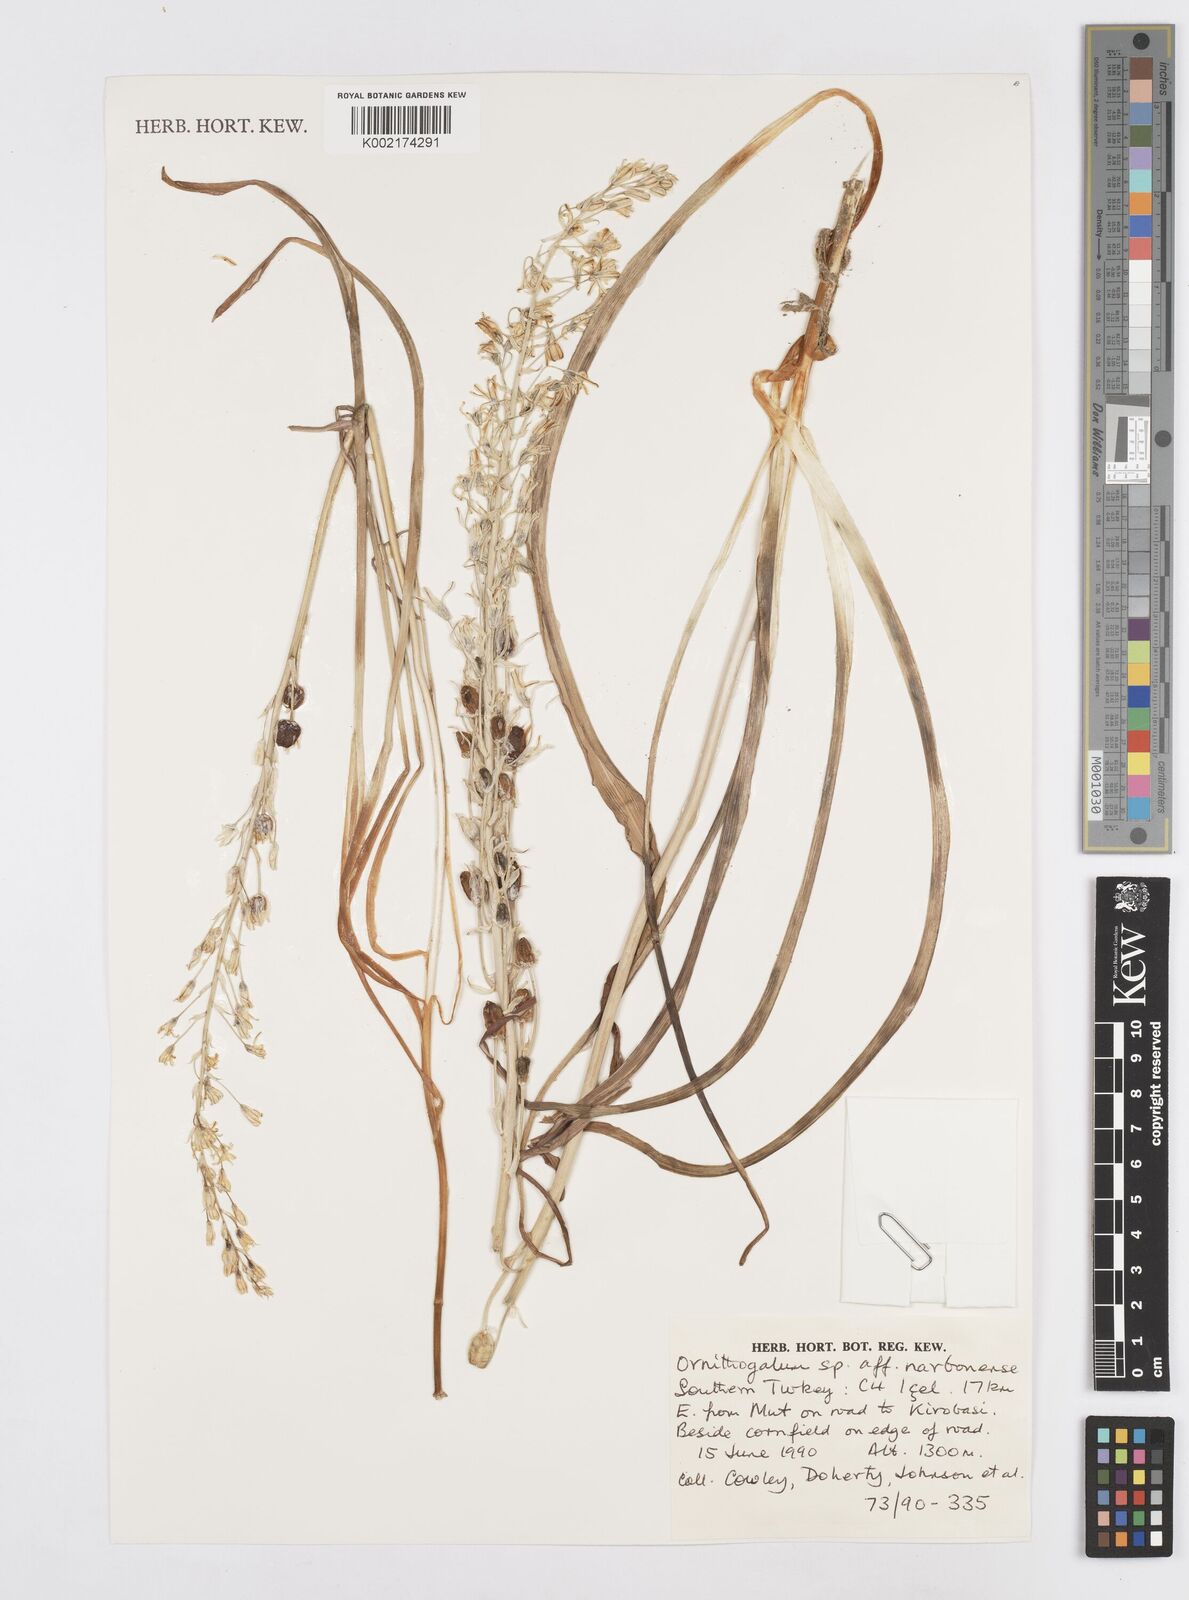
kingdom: Plantae
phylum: Tracheophyta
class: Liliopsida
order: Asparagales
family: Asparagaceae
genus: Ornithogalum
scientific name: Ornithogalum narbonense
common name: Bath-asparagus
